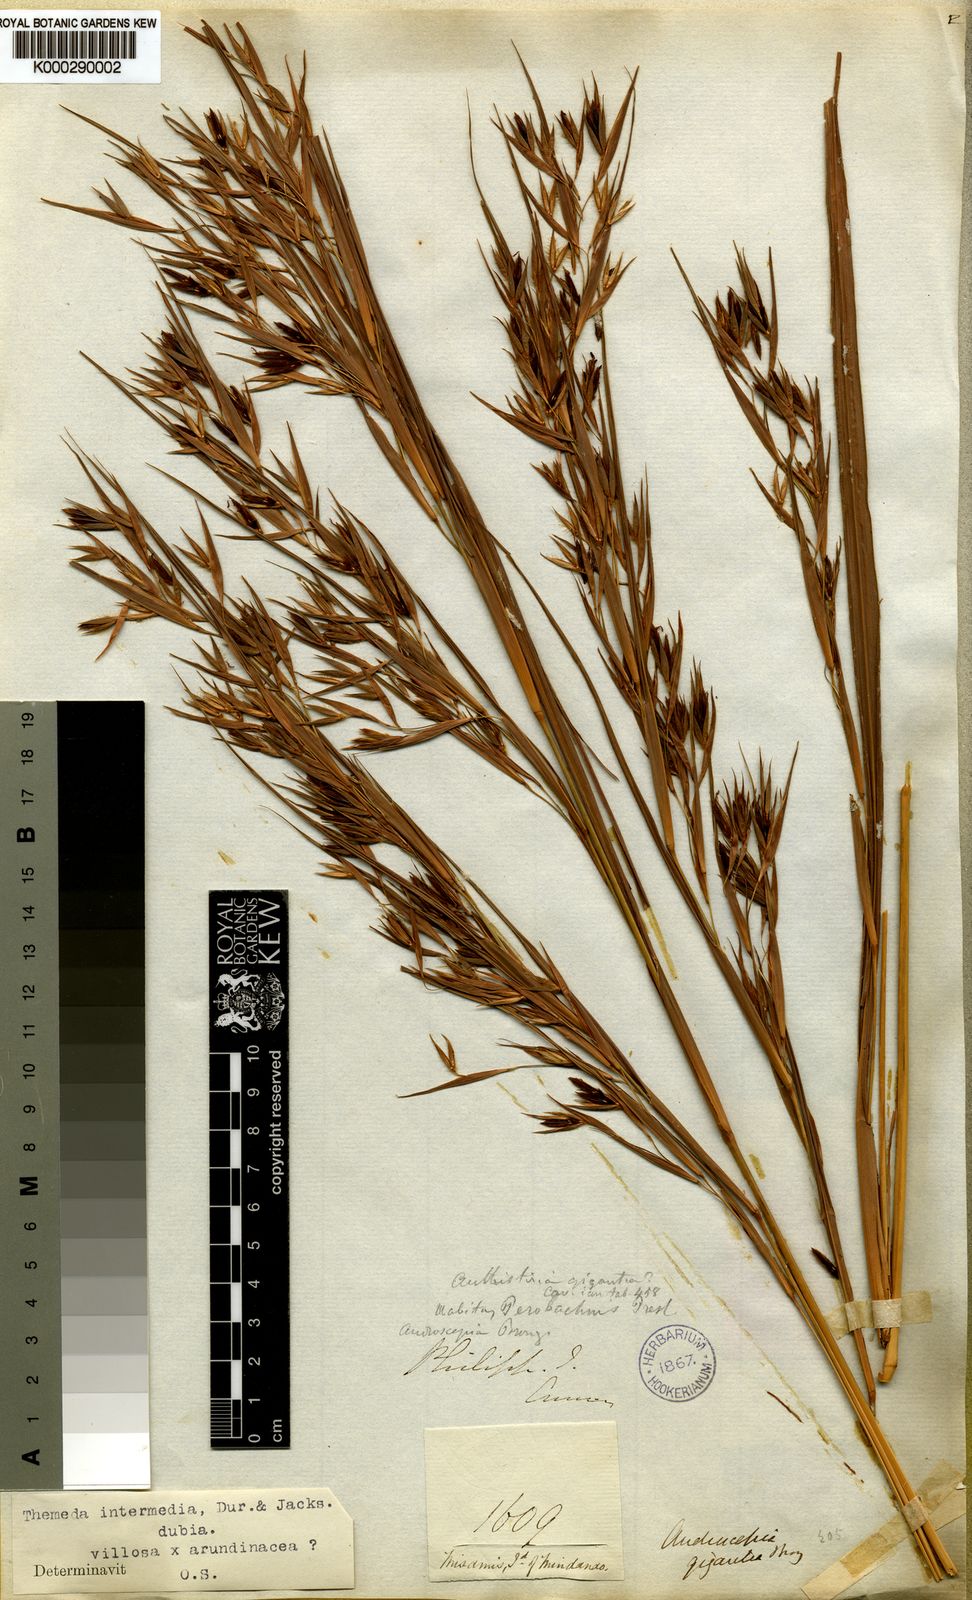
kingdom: Plantae
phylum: Tracheophyta
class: Liliopsida
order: Poales
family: Poaceae
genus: Themeda
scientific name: Themeda intermedia
